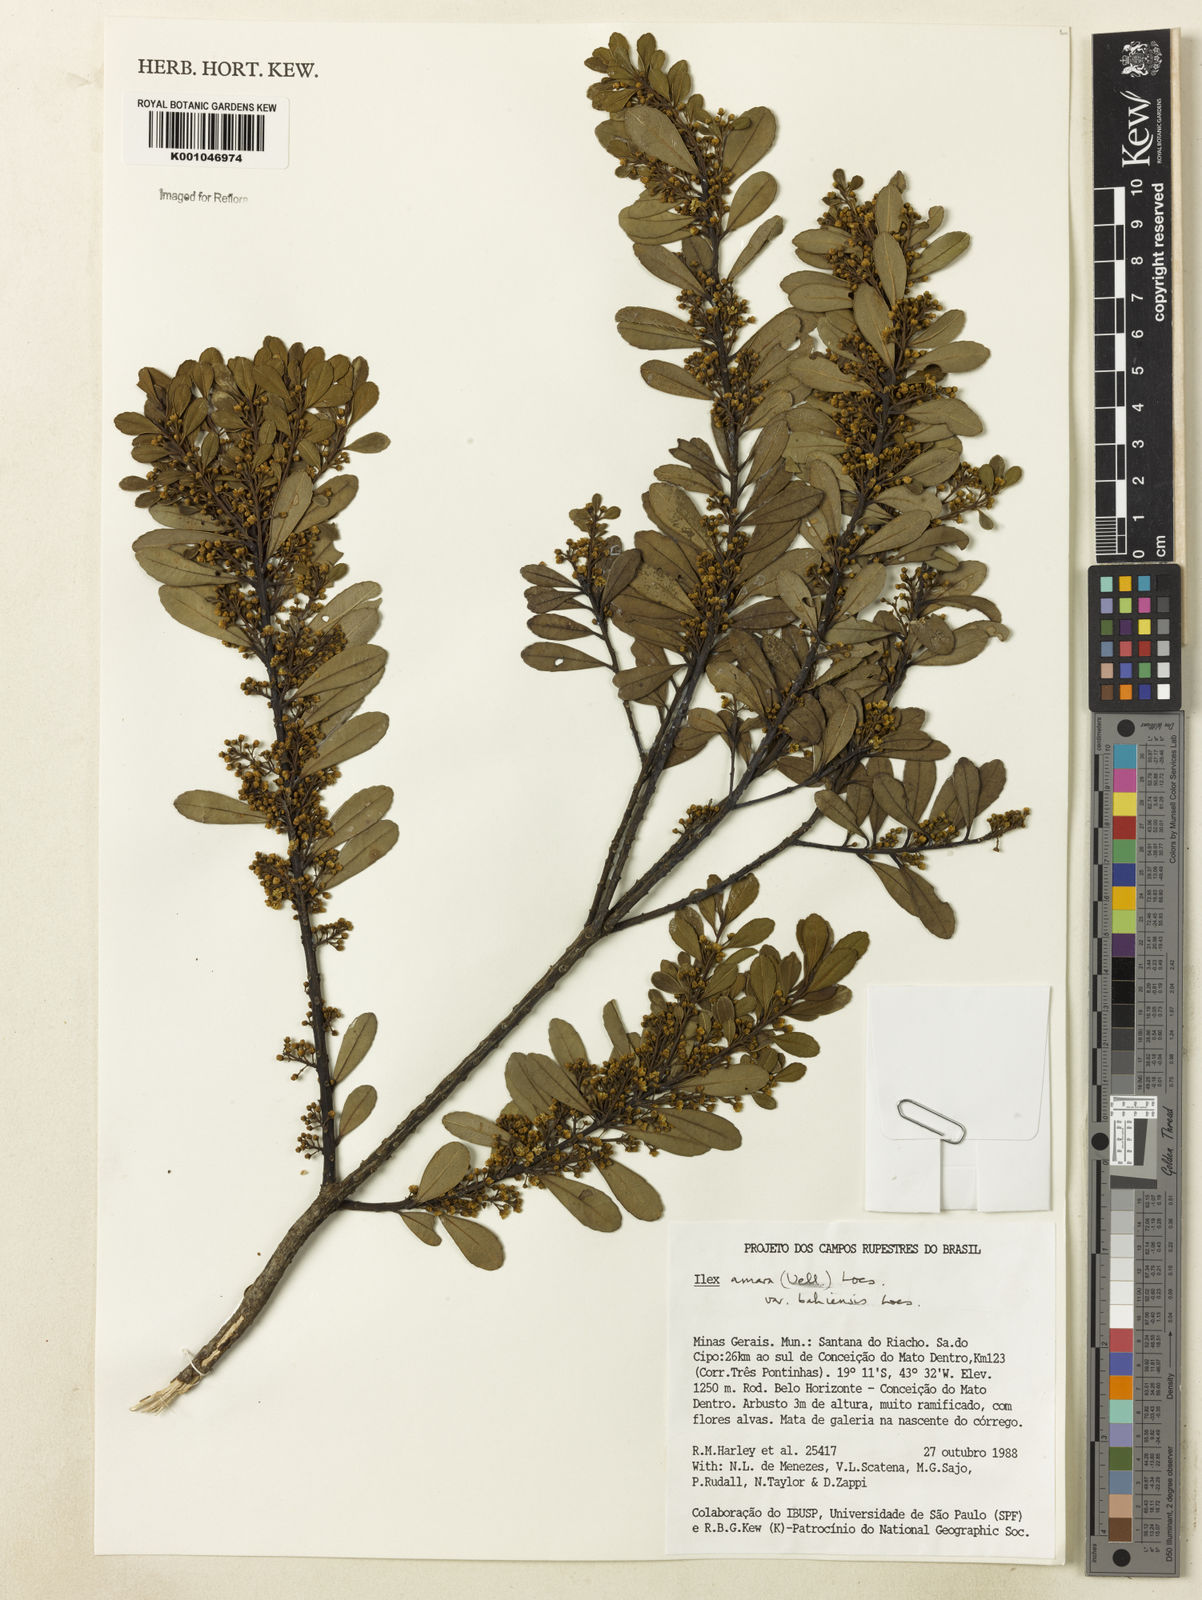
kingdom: Plantae
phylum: Tracheophyta
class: Magnoliopsida
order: Aquifoliales
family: Aquifoliaceae
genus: Ilex
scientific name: Ilex dumosa
